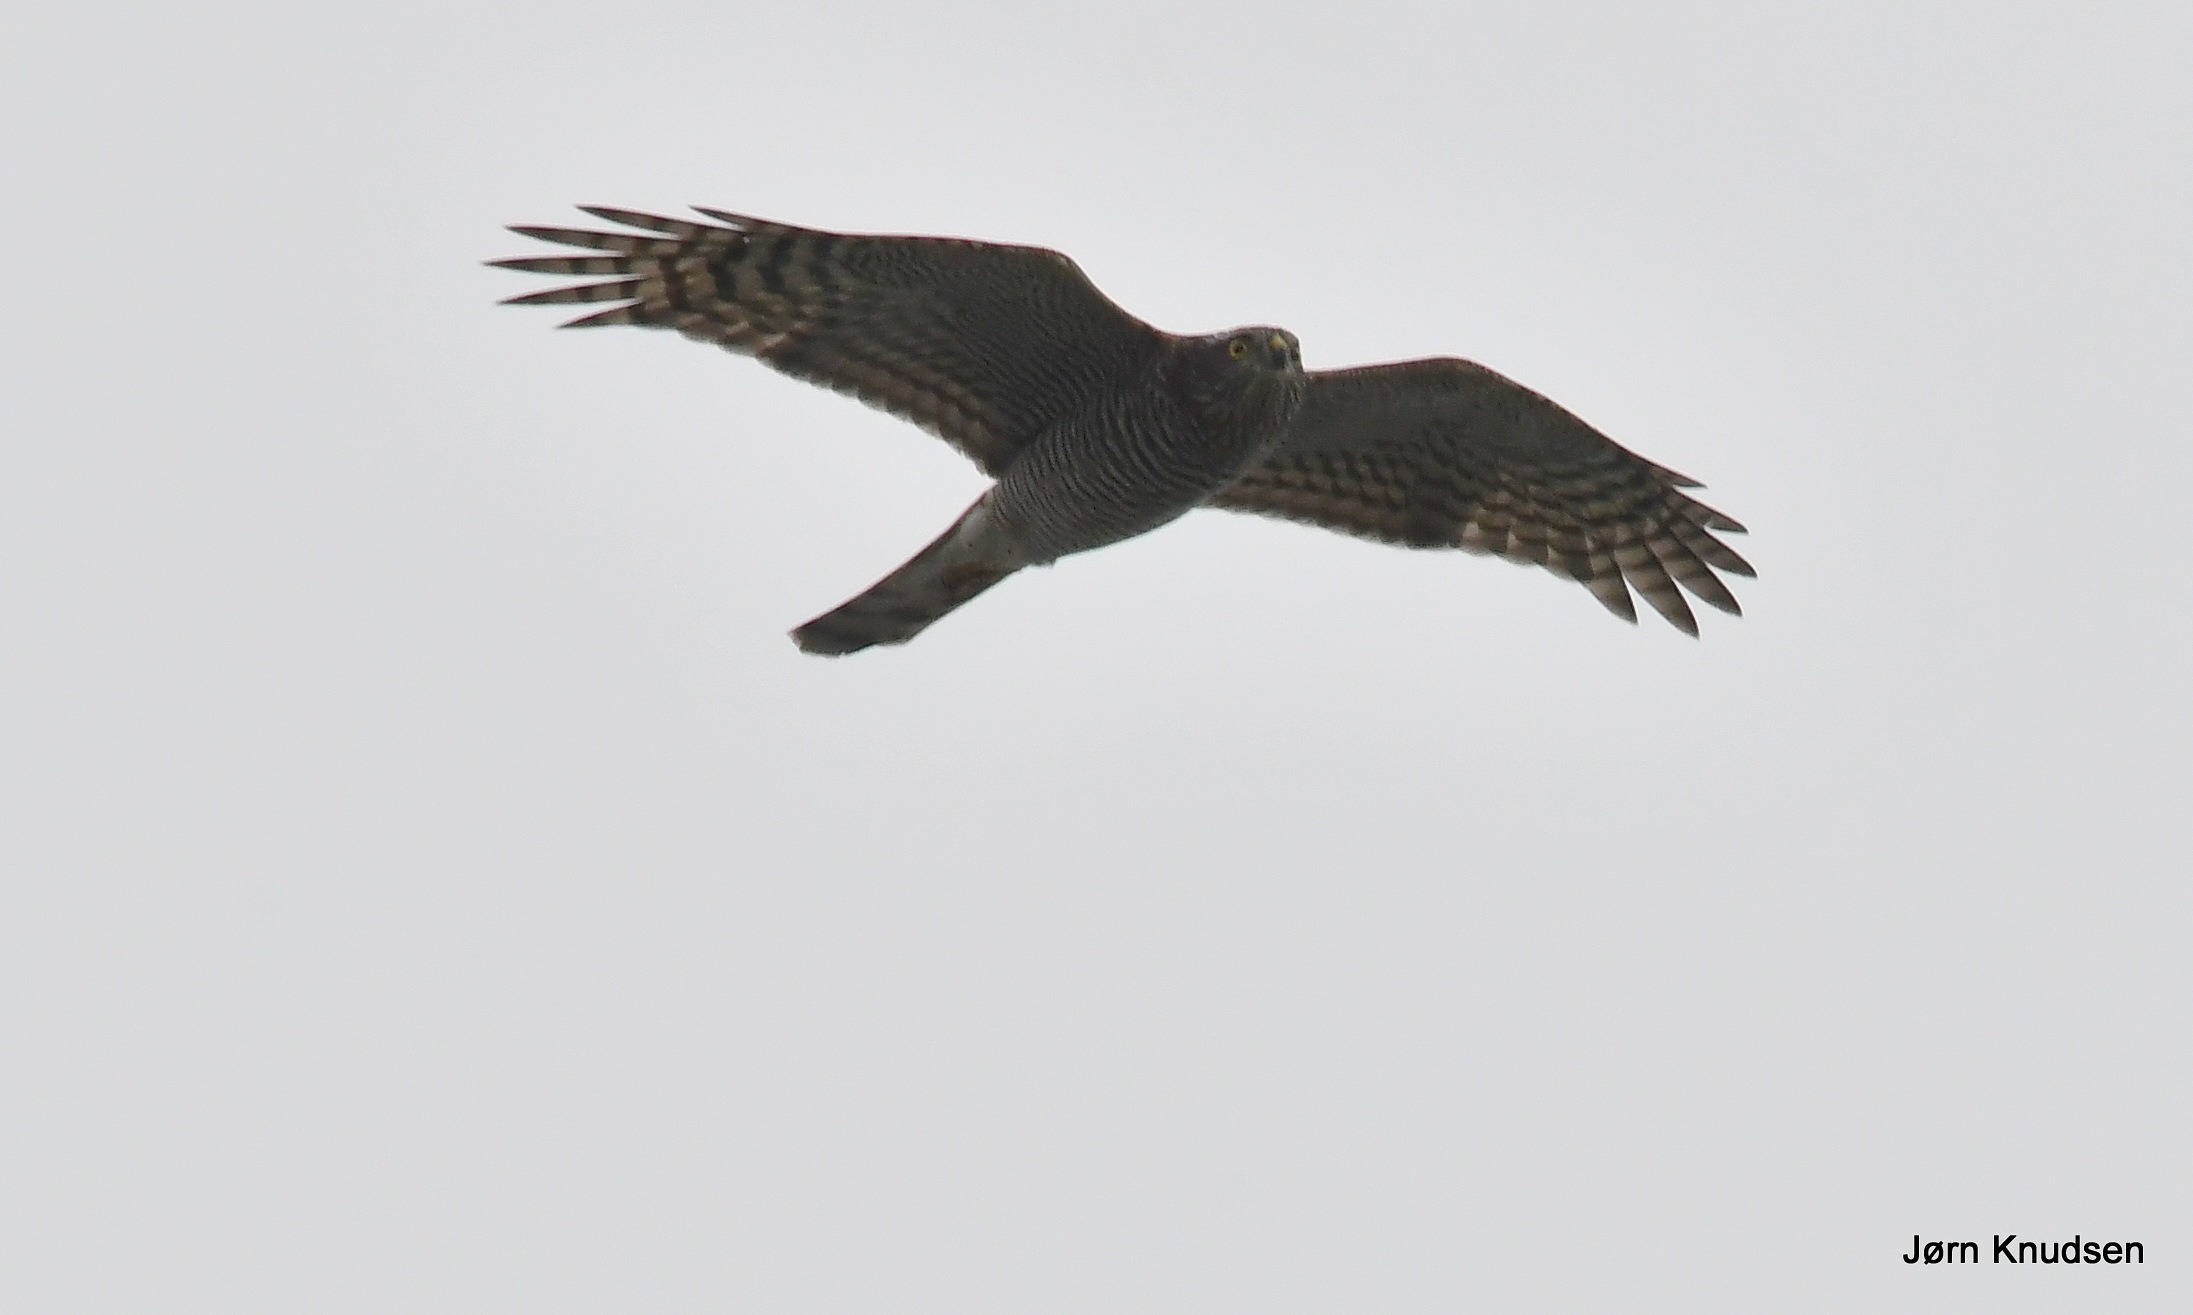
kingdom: Animalia
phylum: Chordata
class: Aves
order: Accipitriformes
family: Accipitridae
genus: Accipiter
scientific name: Accipiter nisus
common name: Spurvehøg
